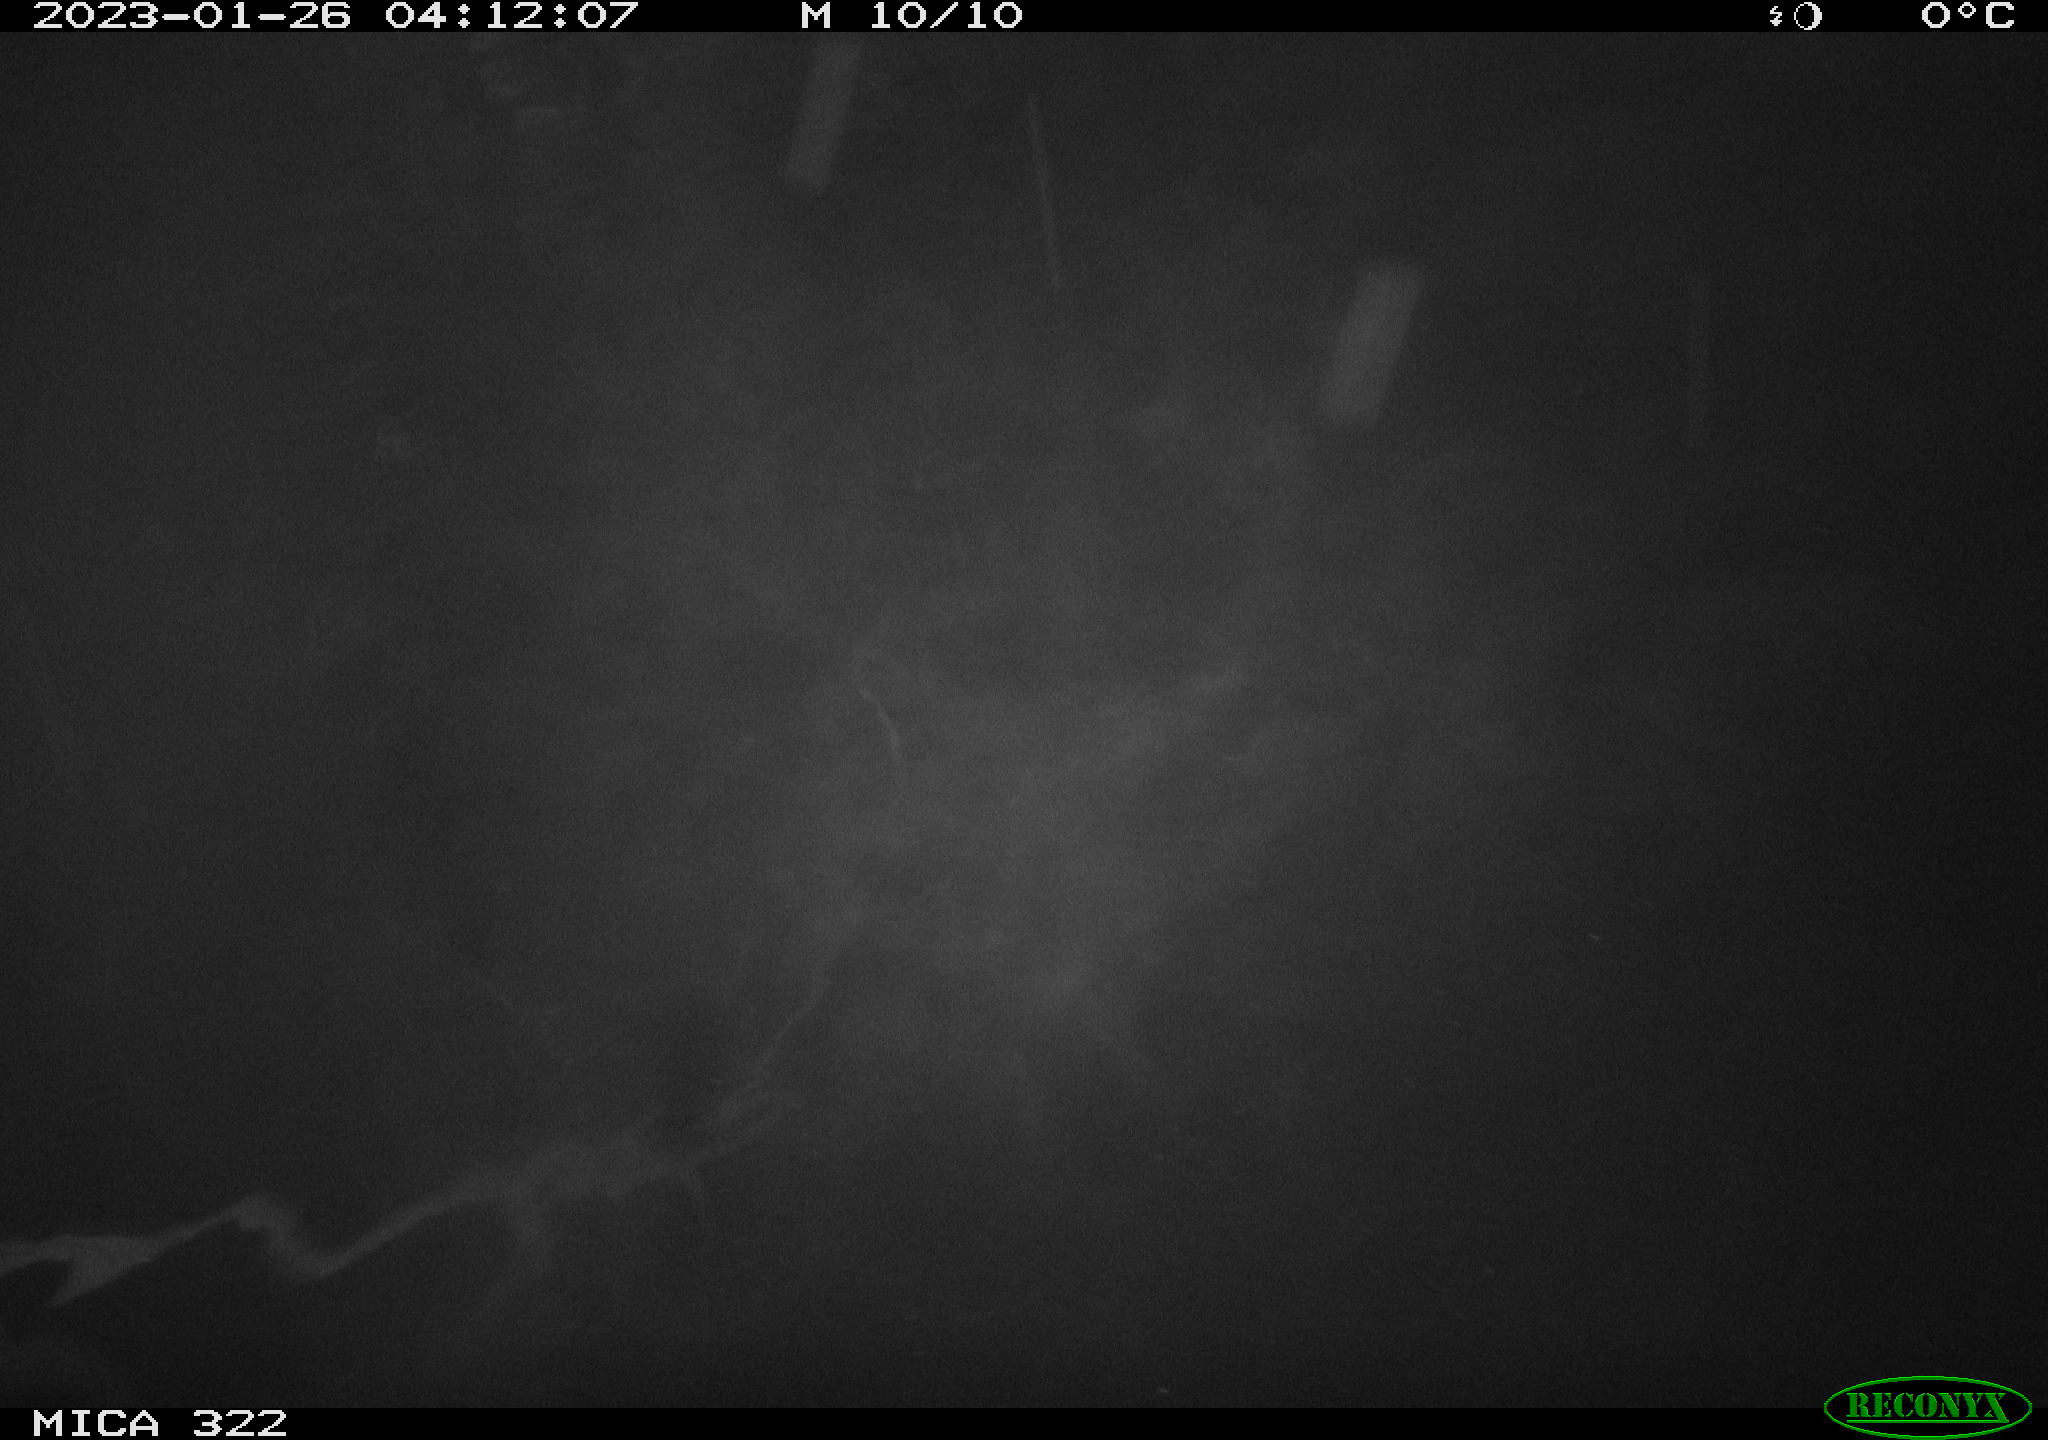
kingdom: Animalia
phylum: Chordata
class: Aves
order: Anseriformes
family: Anatidae
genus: Anas
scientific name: Anas
